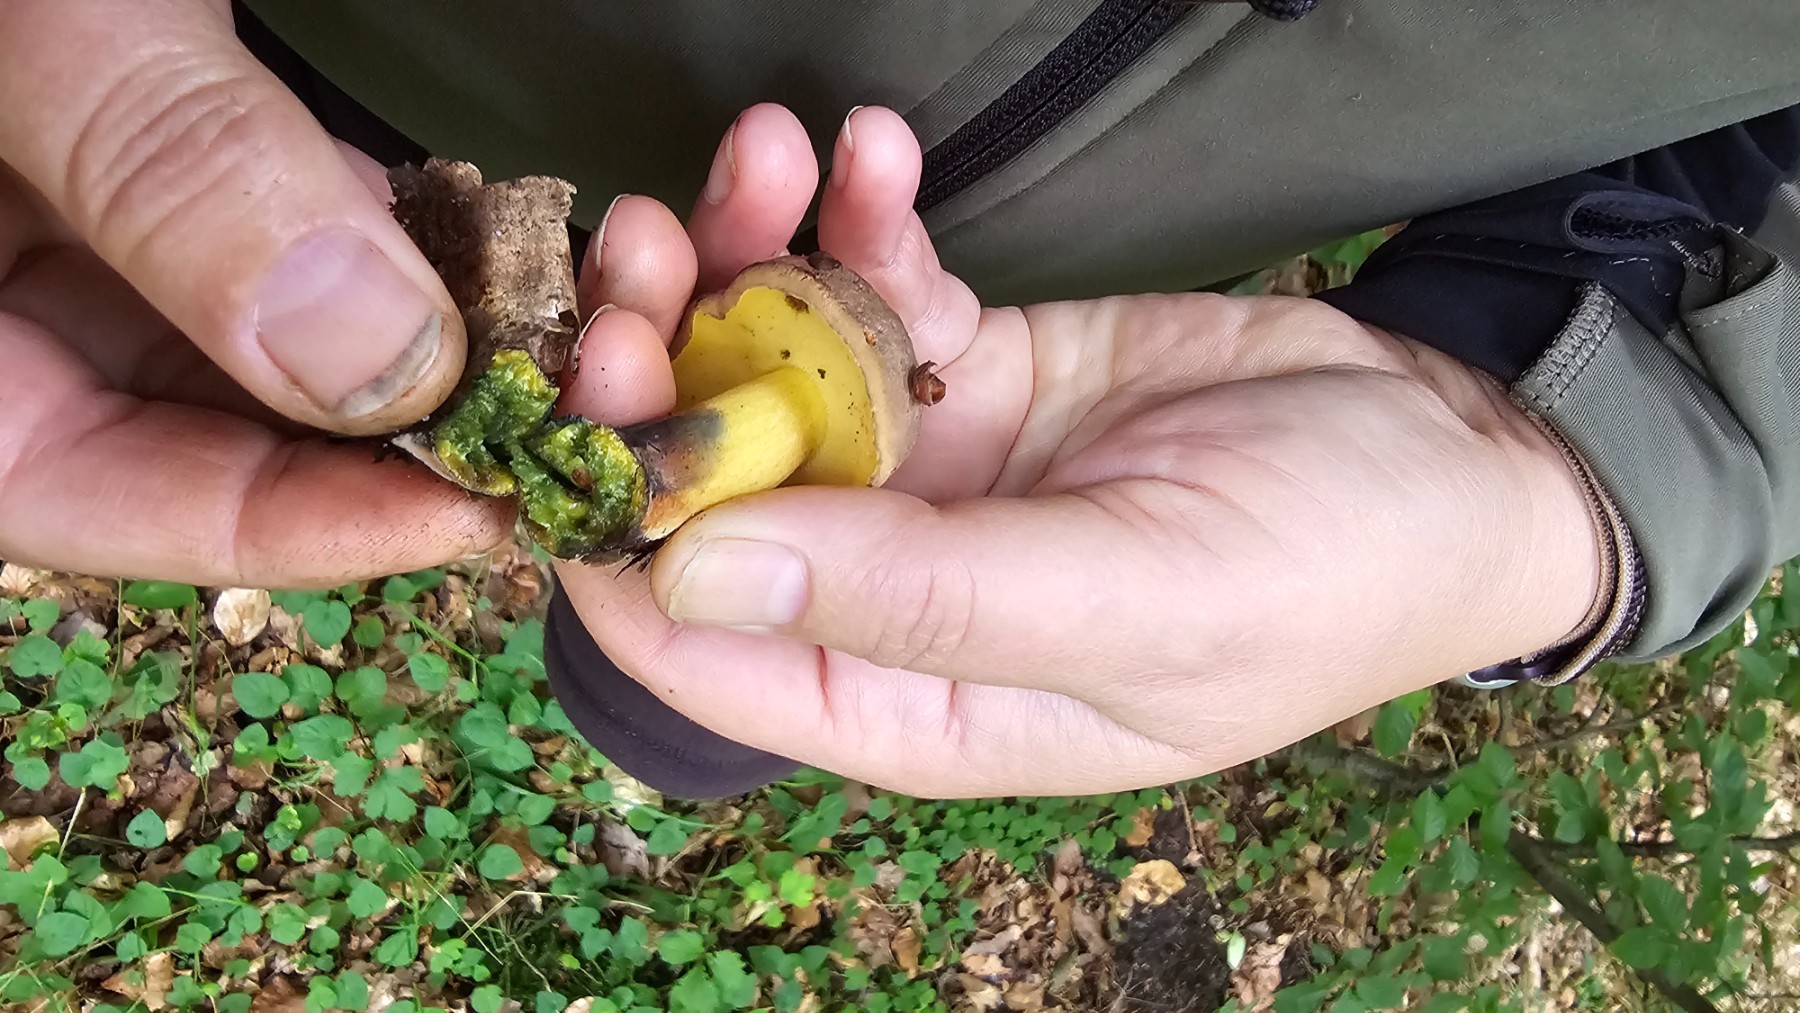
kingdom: Fungi
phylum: Basidiomycota
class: Agaricomycetes
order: Boletales
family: Boletaceae
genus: Cyanoboletus
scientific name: Cyanoboletus pulverulentus
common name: sortblånende rørhat
